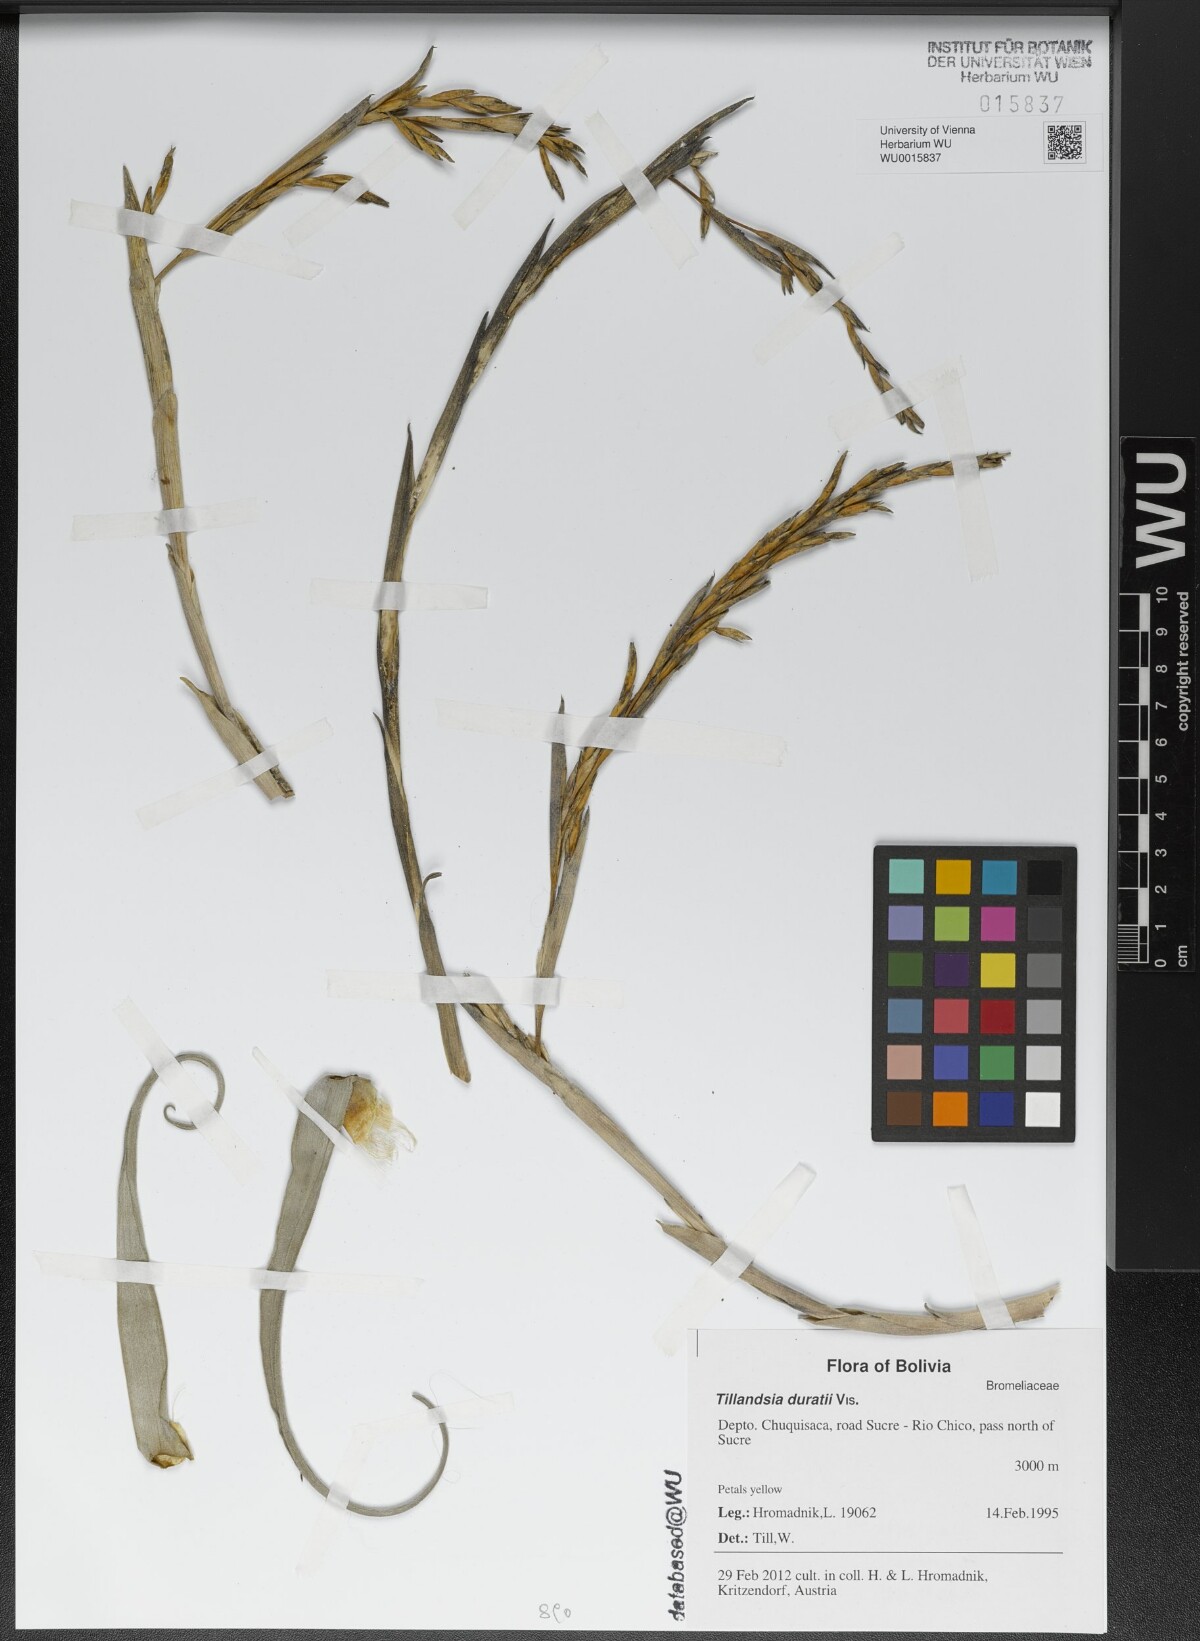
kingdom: Plantae
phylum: Tracheophyta
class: Liliopsida
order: Poales
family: Bromeliaceae
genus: Tillandsia
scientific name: Tillandsia duratii
